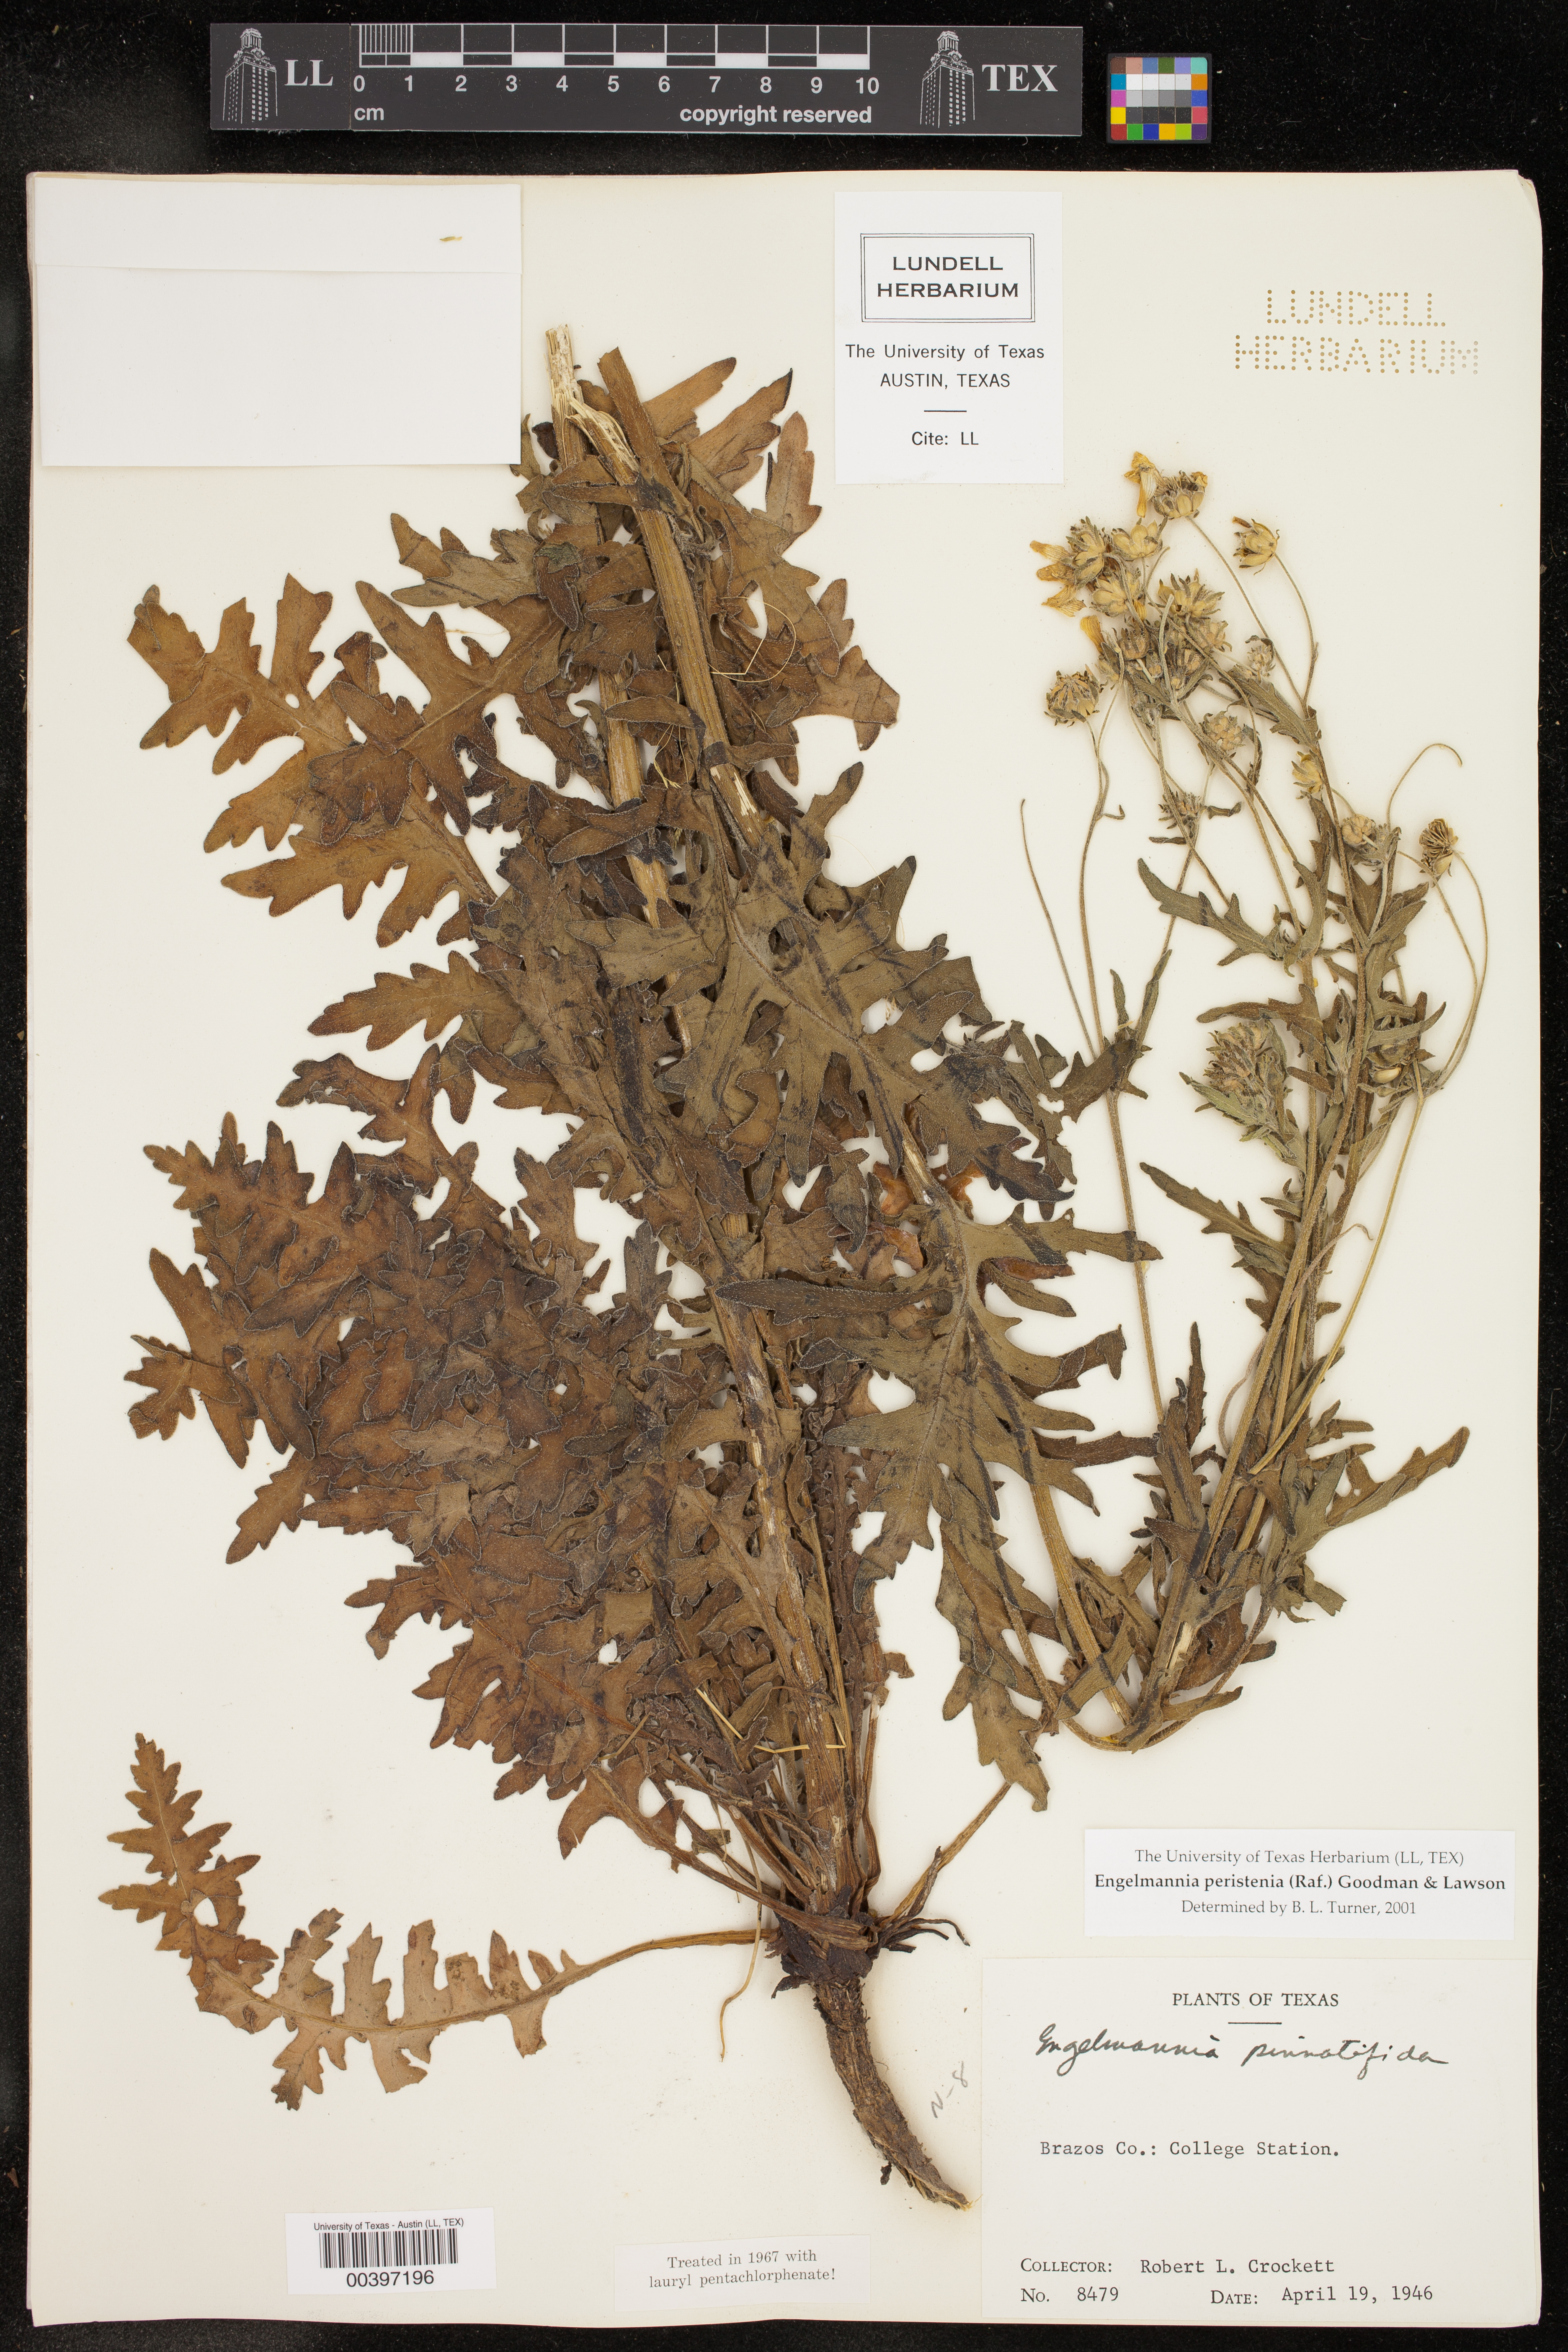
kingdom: Plantae
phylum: Tracheophyta
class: Magnoliopsida
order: Asterales
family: Asteraceae
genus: Engelmannia
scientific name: Engelmannia peristenia
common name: Engelmann's daisy
